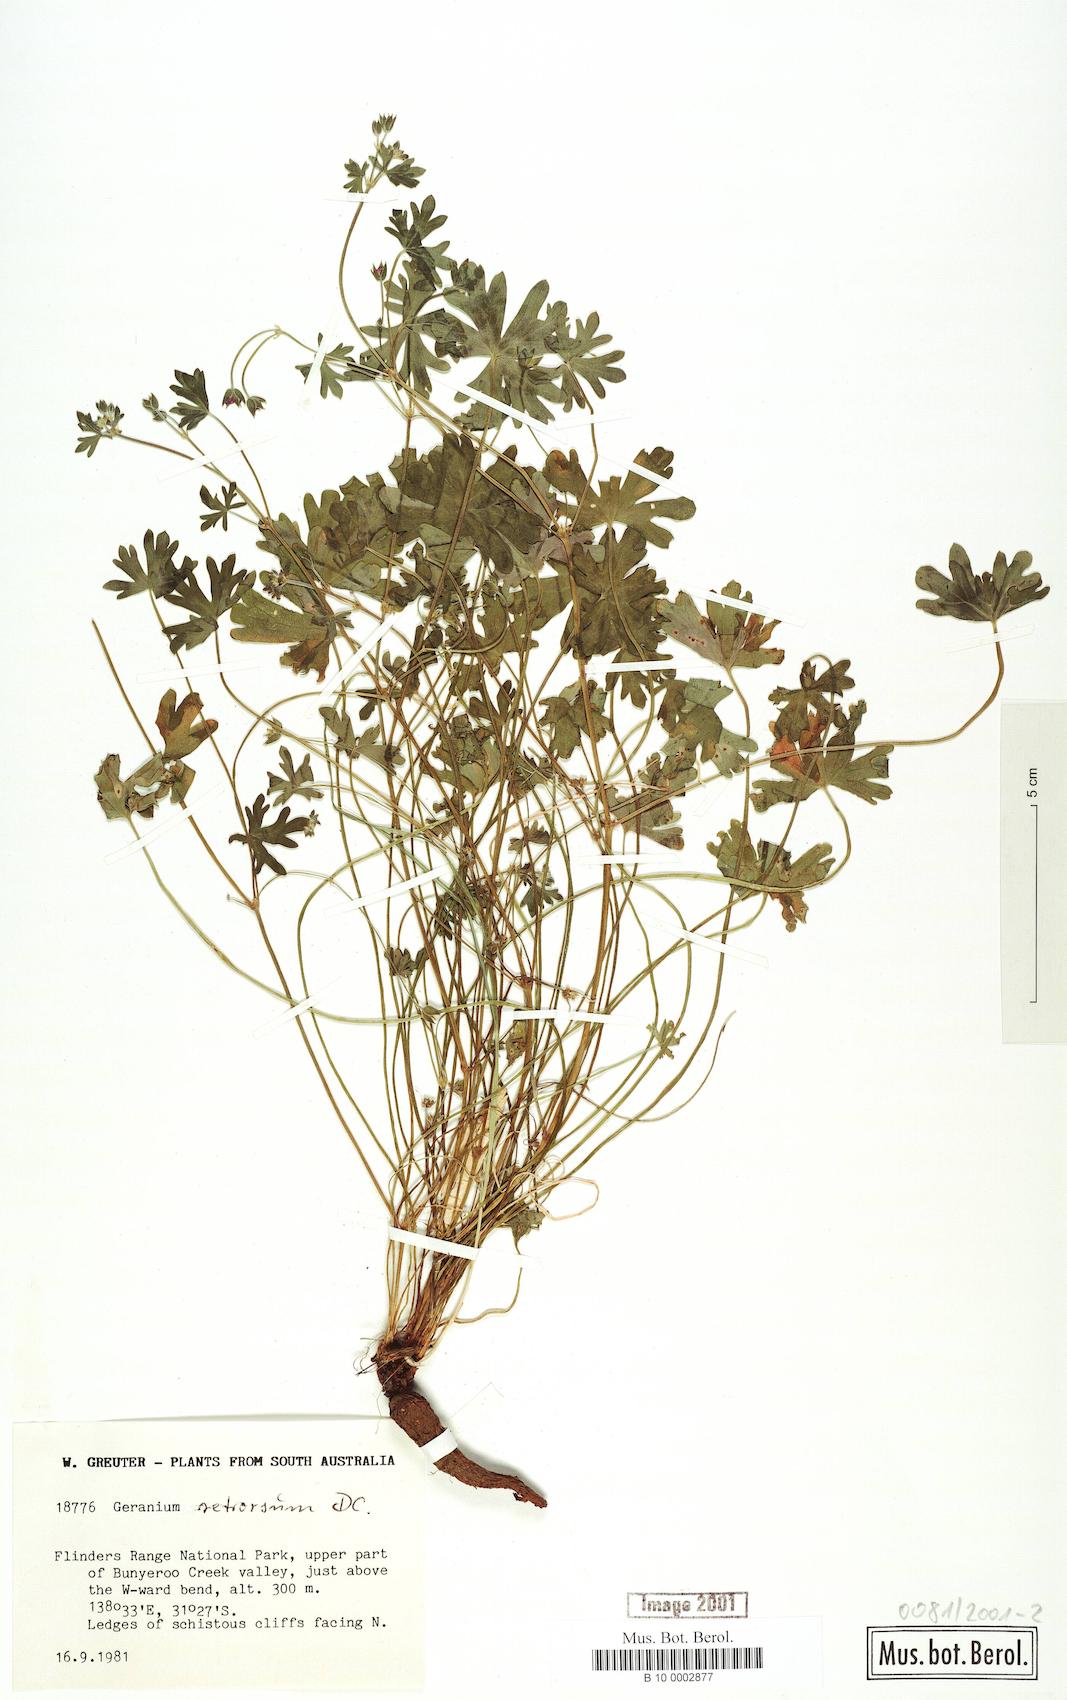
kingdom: Plantae
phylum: Tracheophyta
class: Magnoliopsida
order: Geraniales
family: Geraniaceae
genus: Geranium
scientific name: Geranium retrorsum
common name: New zealand geranium
